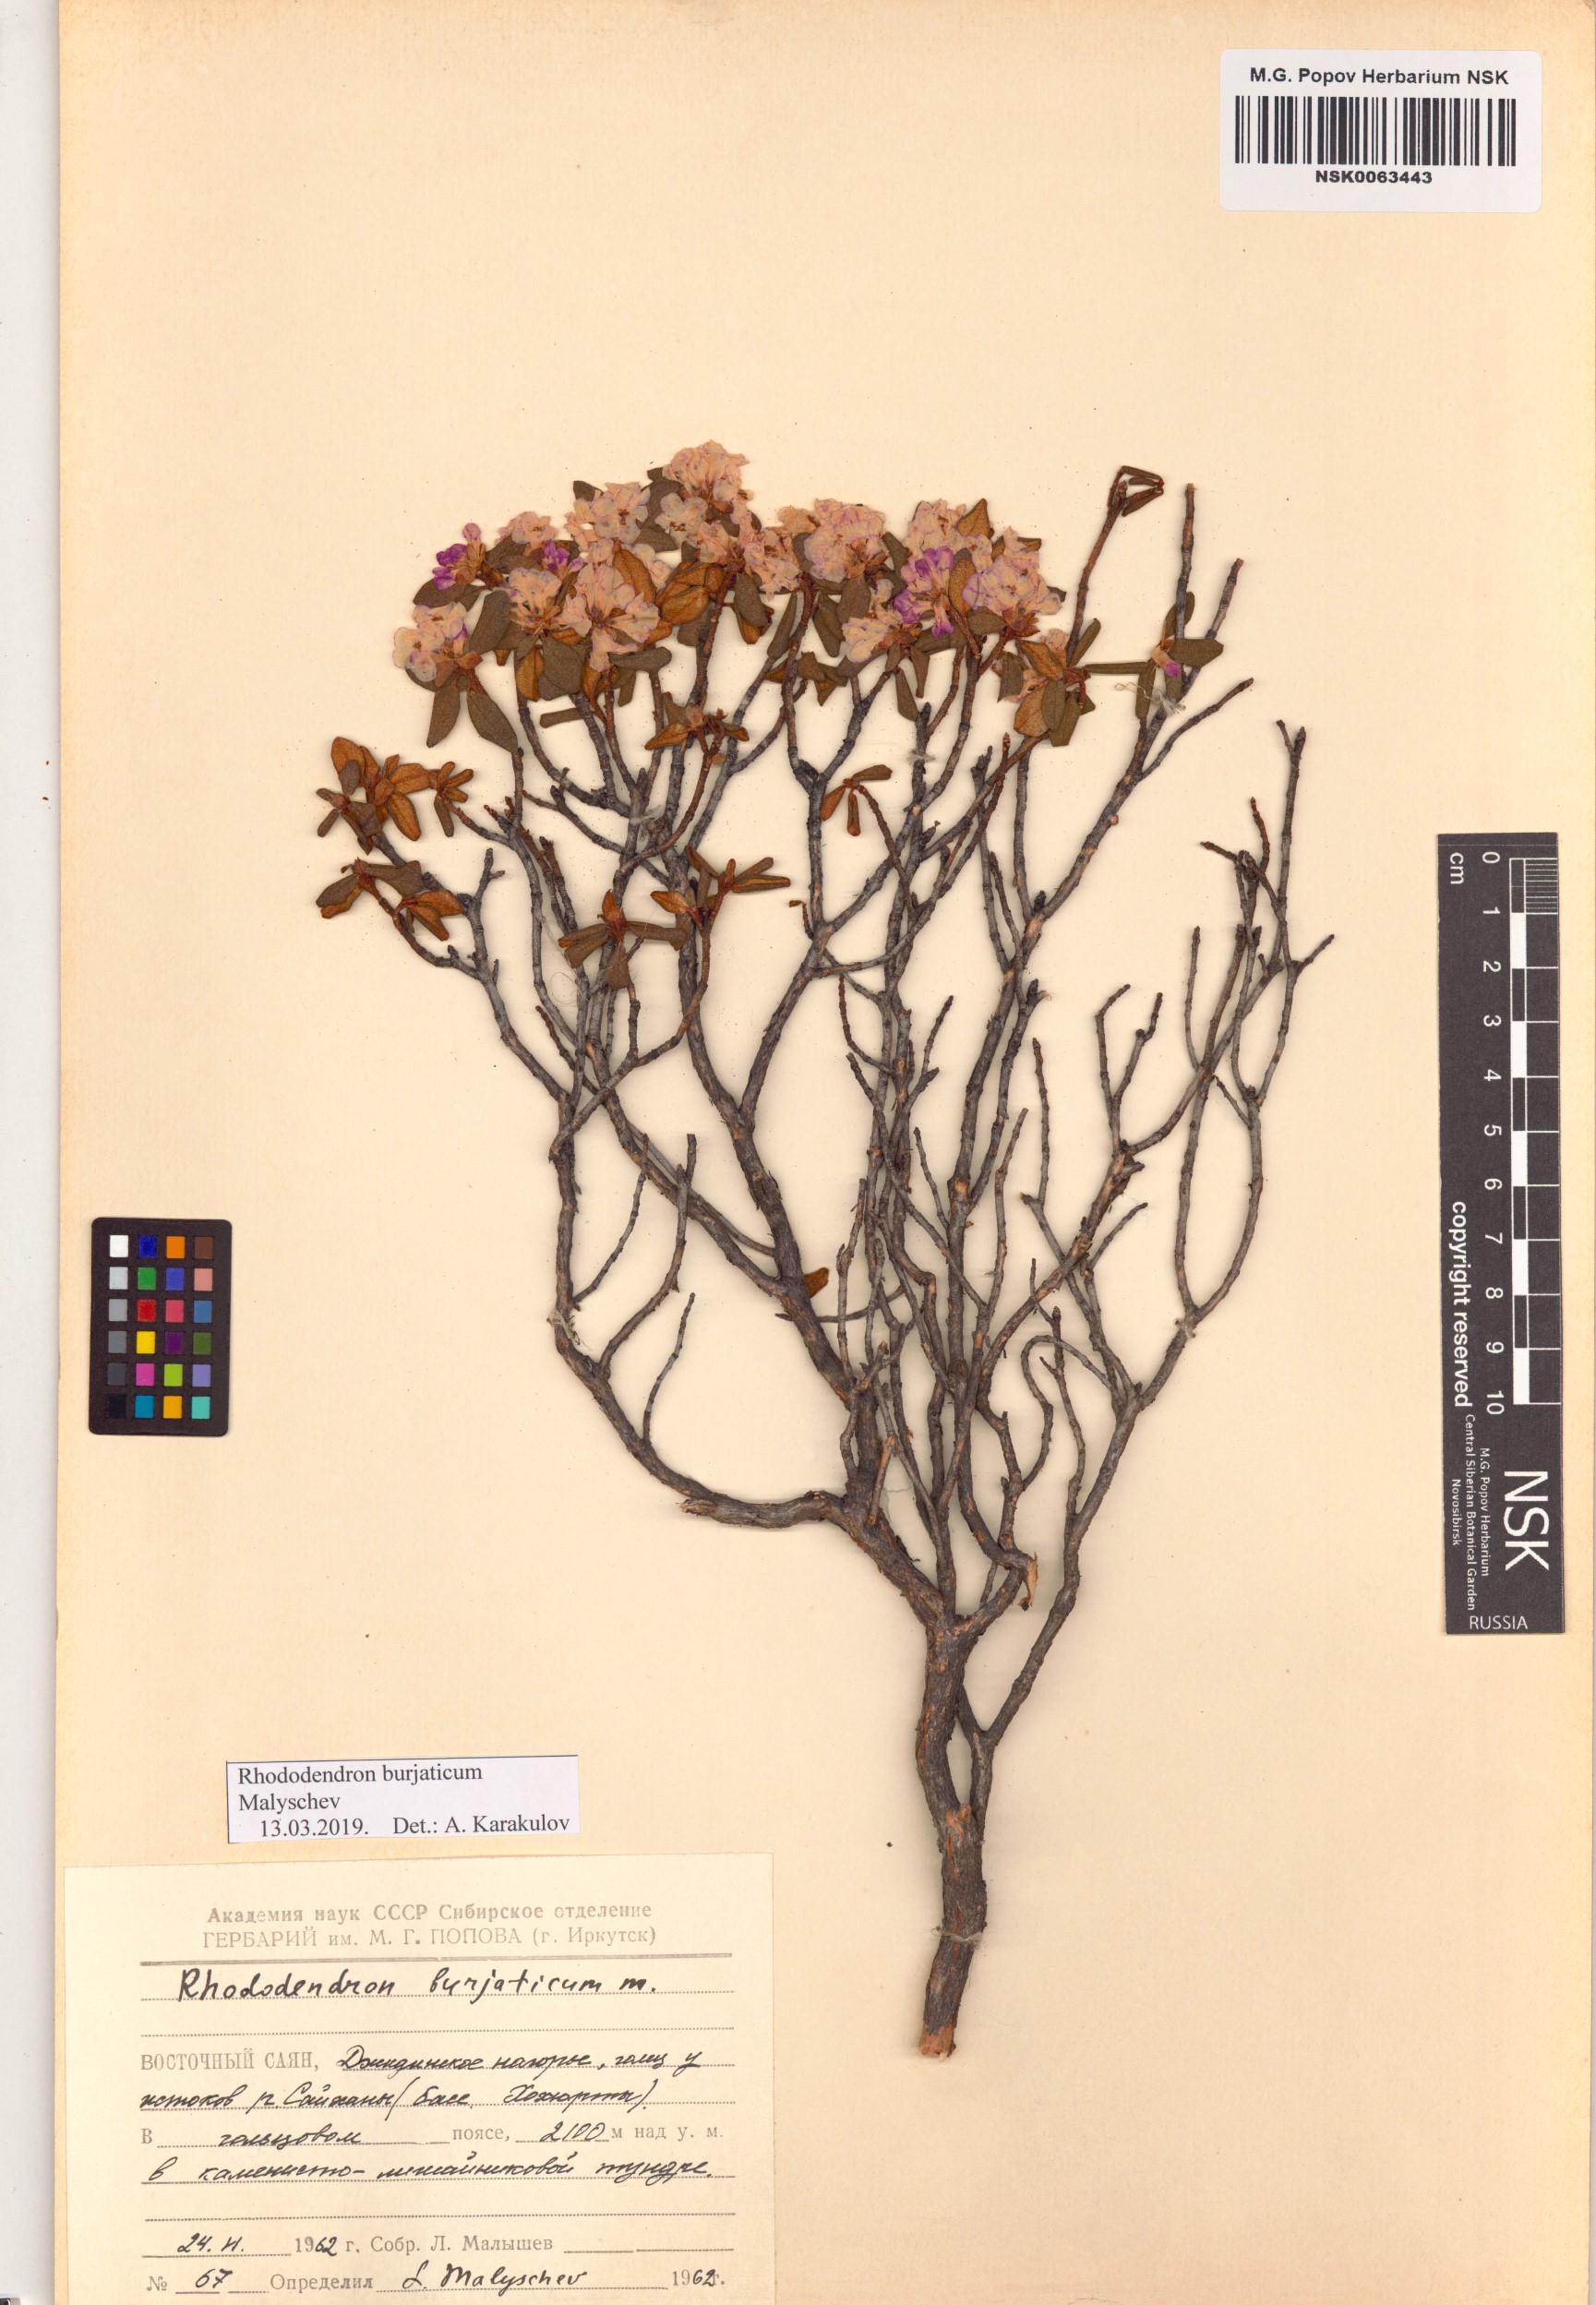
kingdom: Plantae
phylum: Tracheophyta
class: Magnoliopsida
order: Ericales
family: Ericaceae
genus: Rhododendron
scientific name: Rhododendron burjaticum
